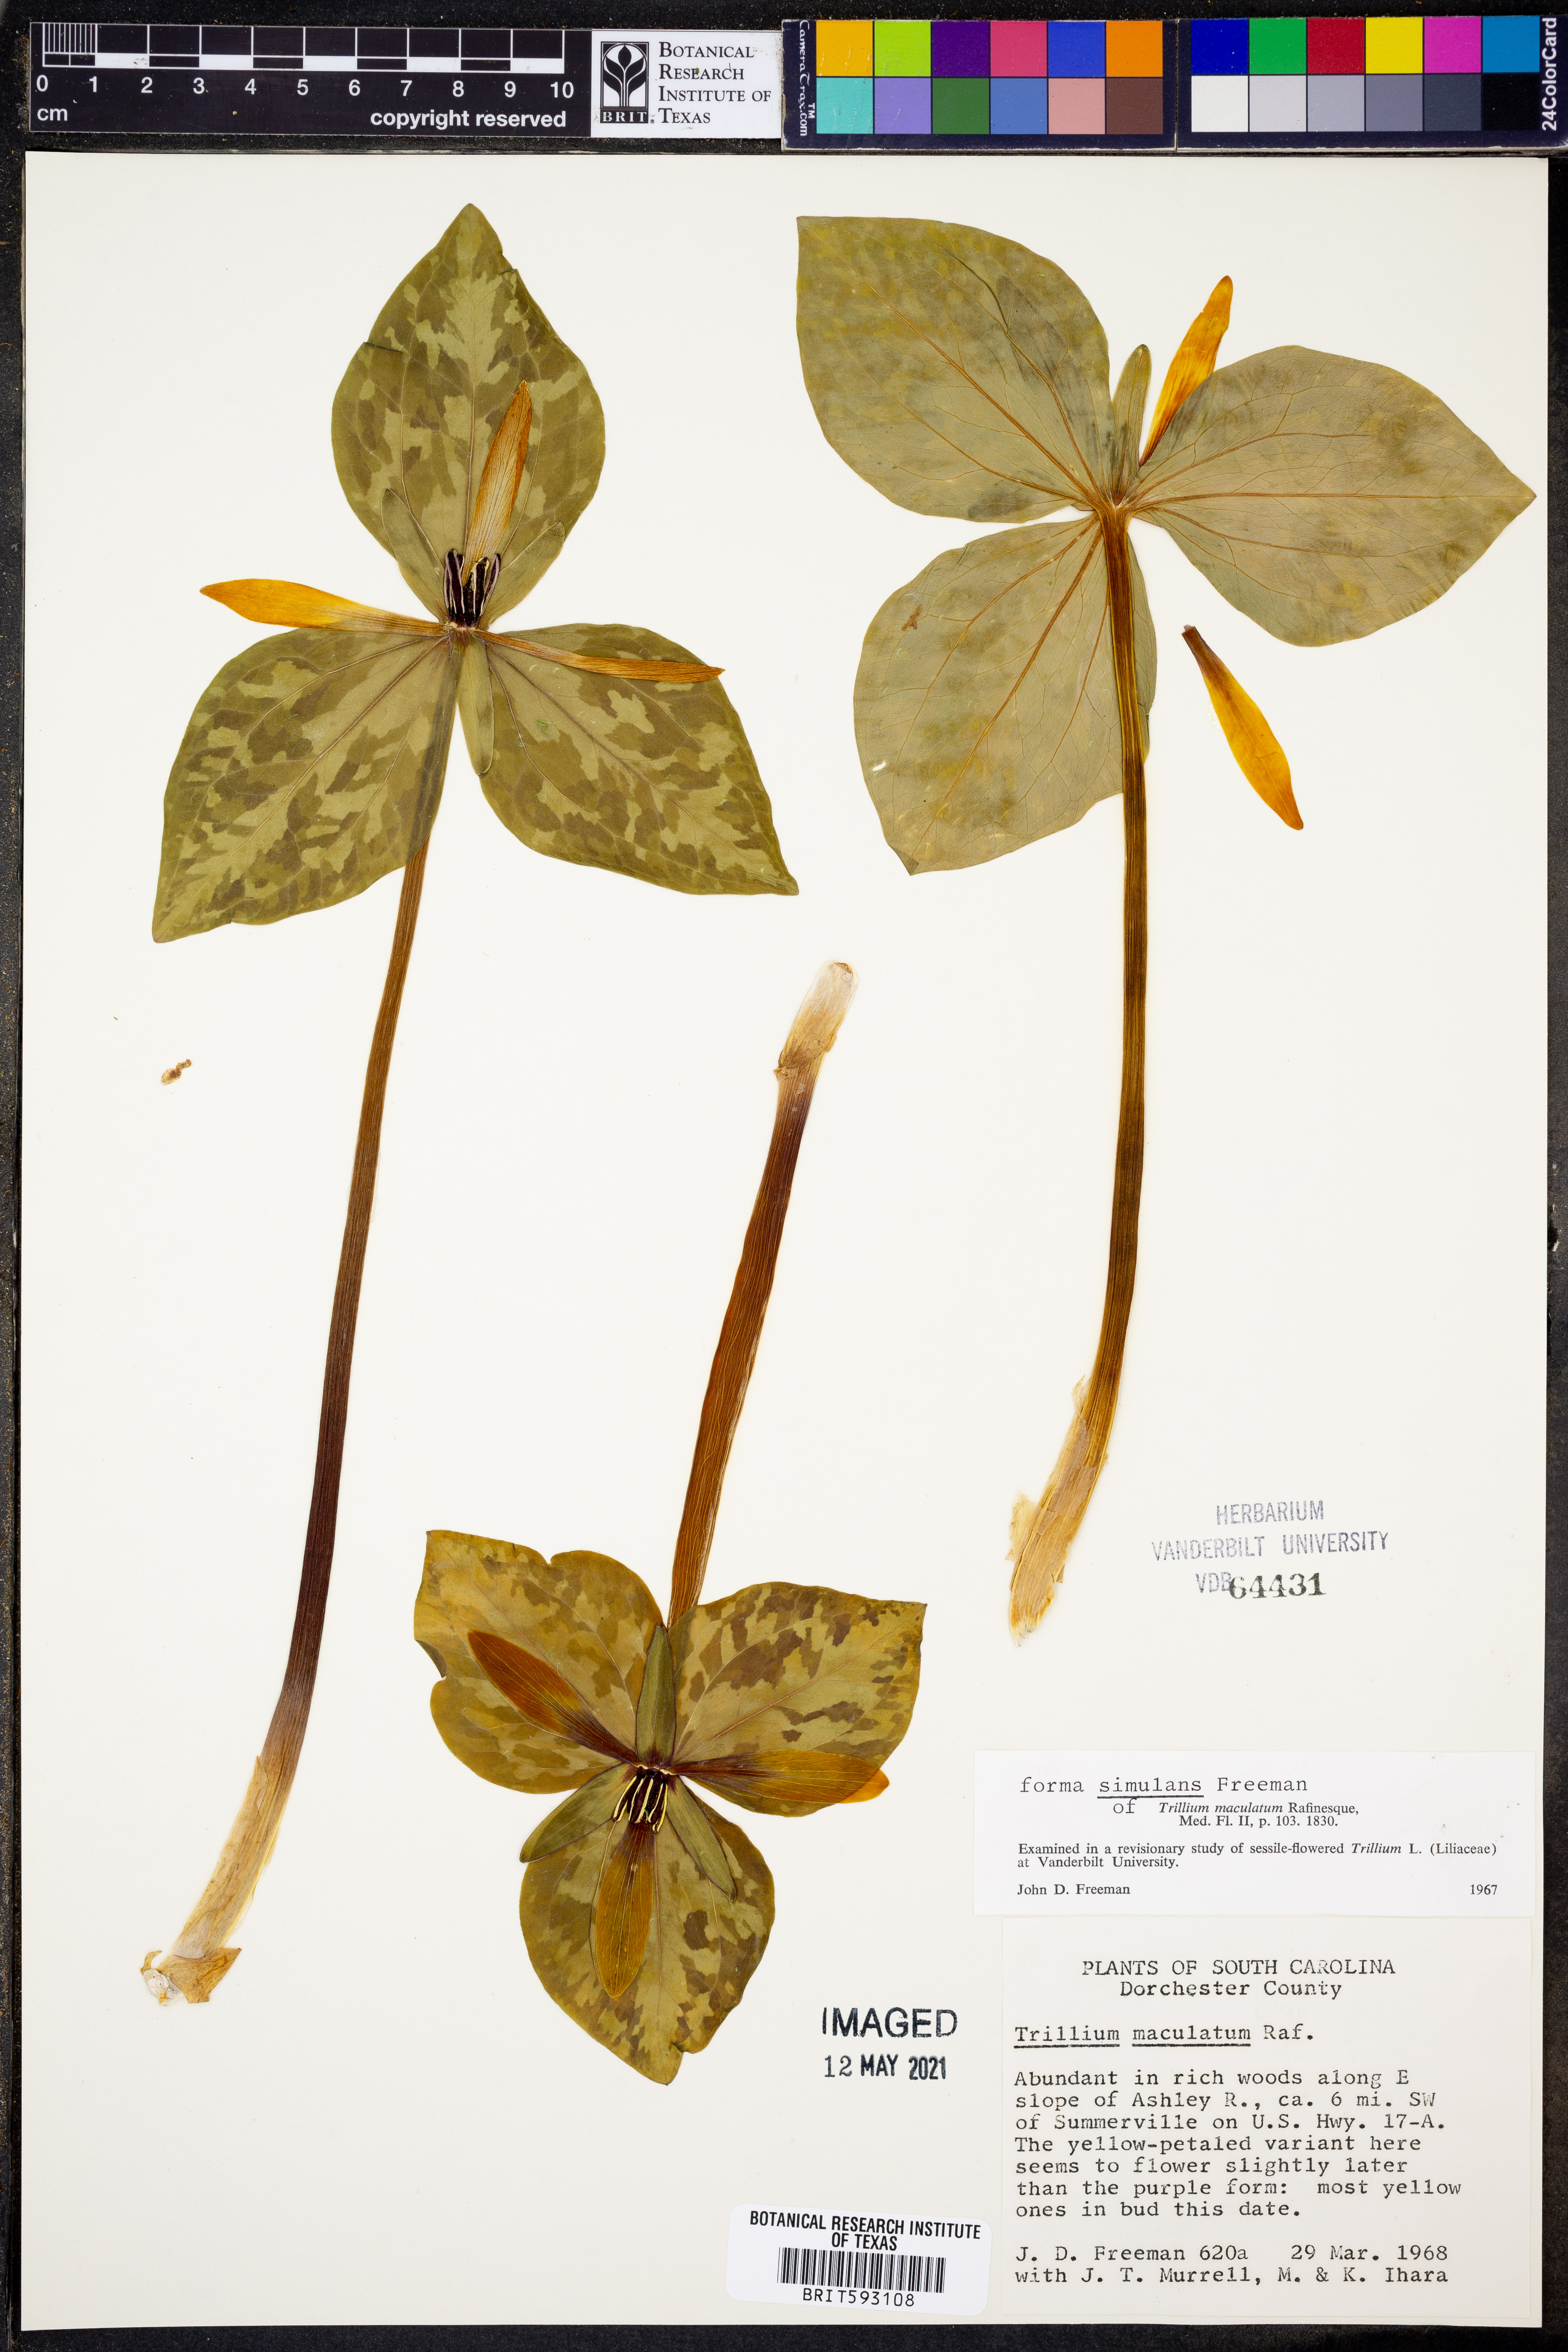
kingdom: Plantae
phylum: Tracheophyta
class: Liliopsida
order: Liliales
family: Melanthiaceae
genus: Trillium
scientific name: Trillium maculatum
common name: Mottled trillium
